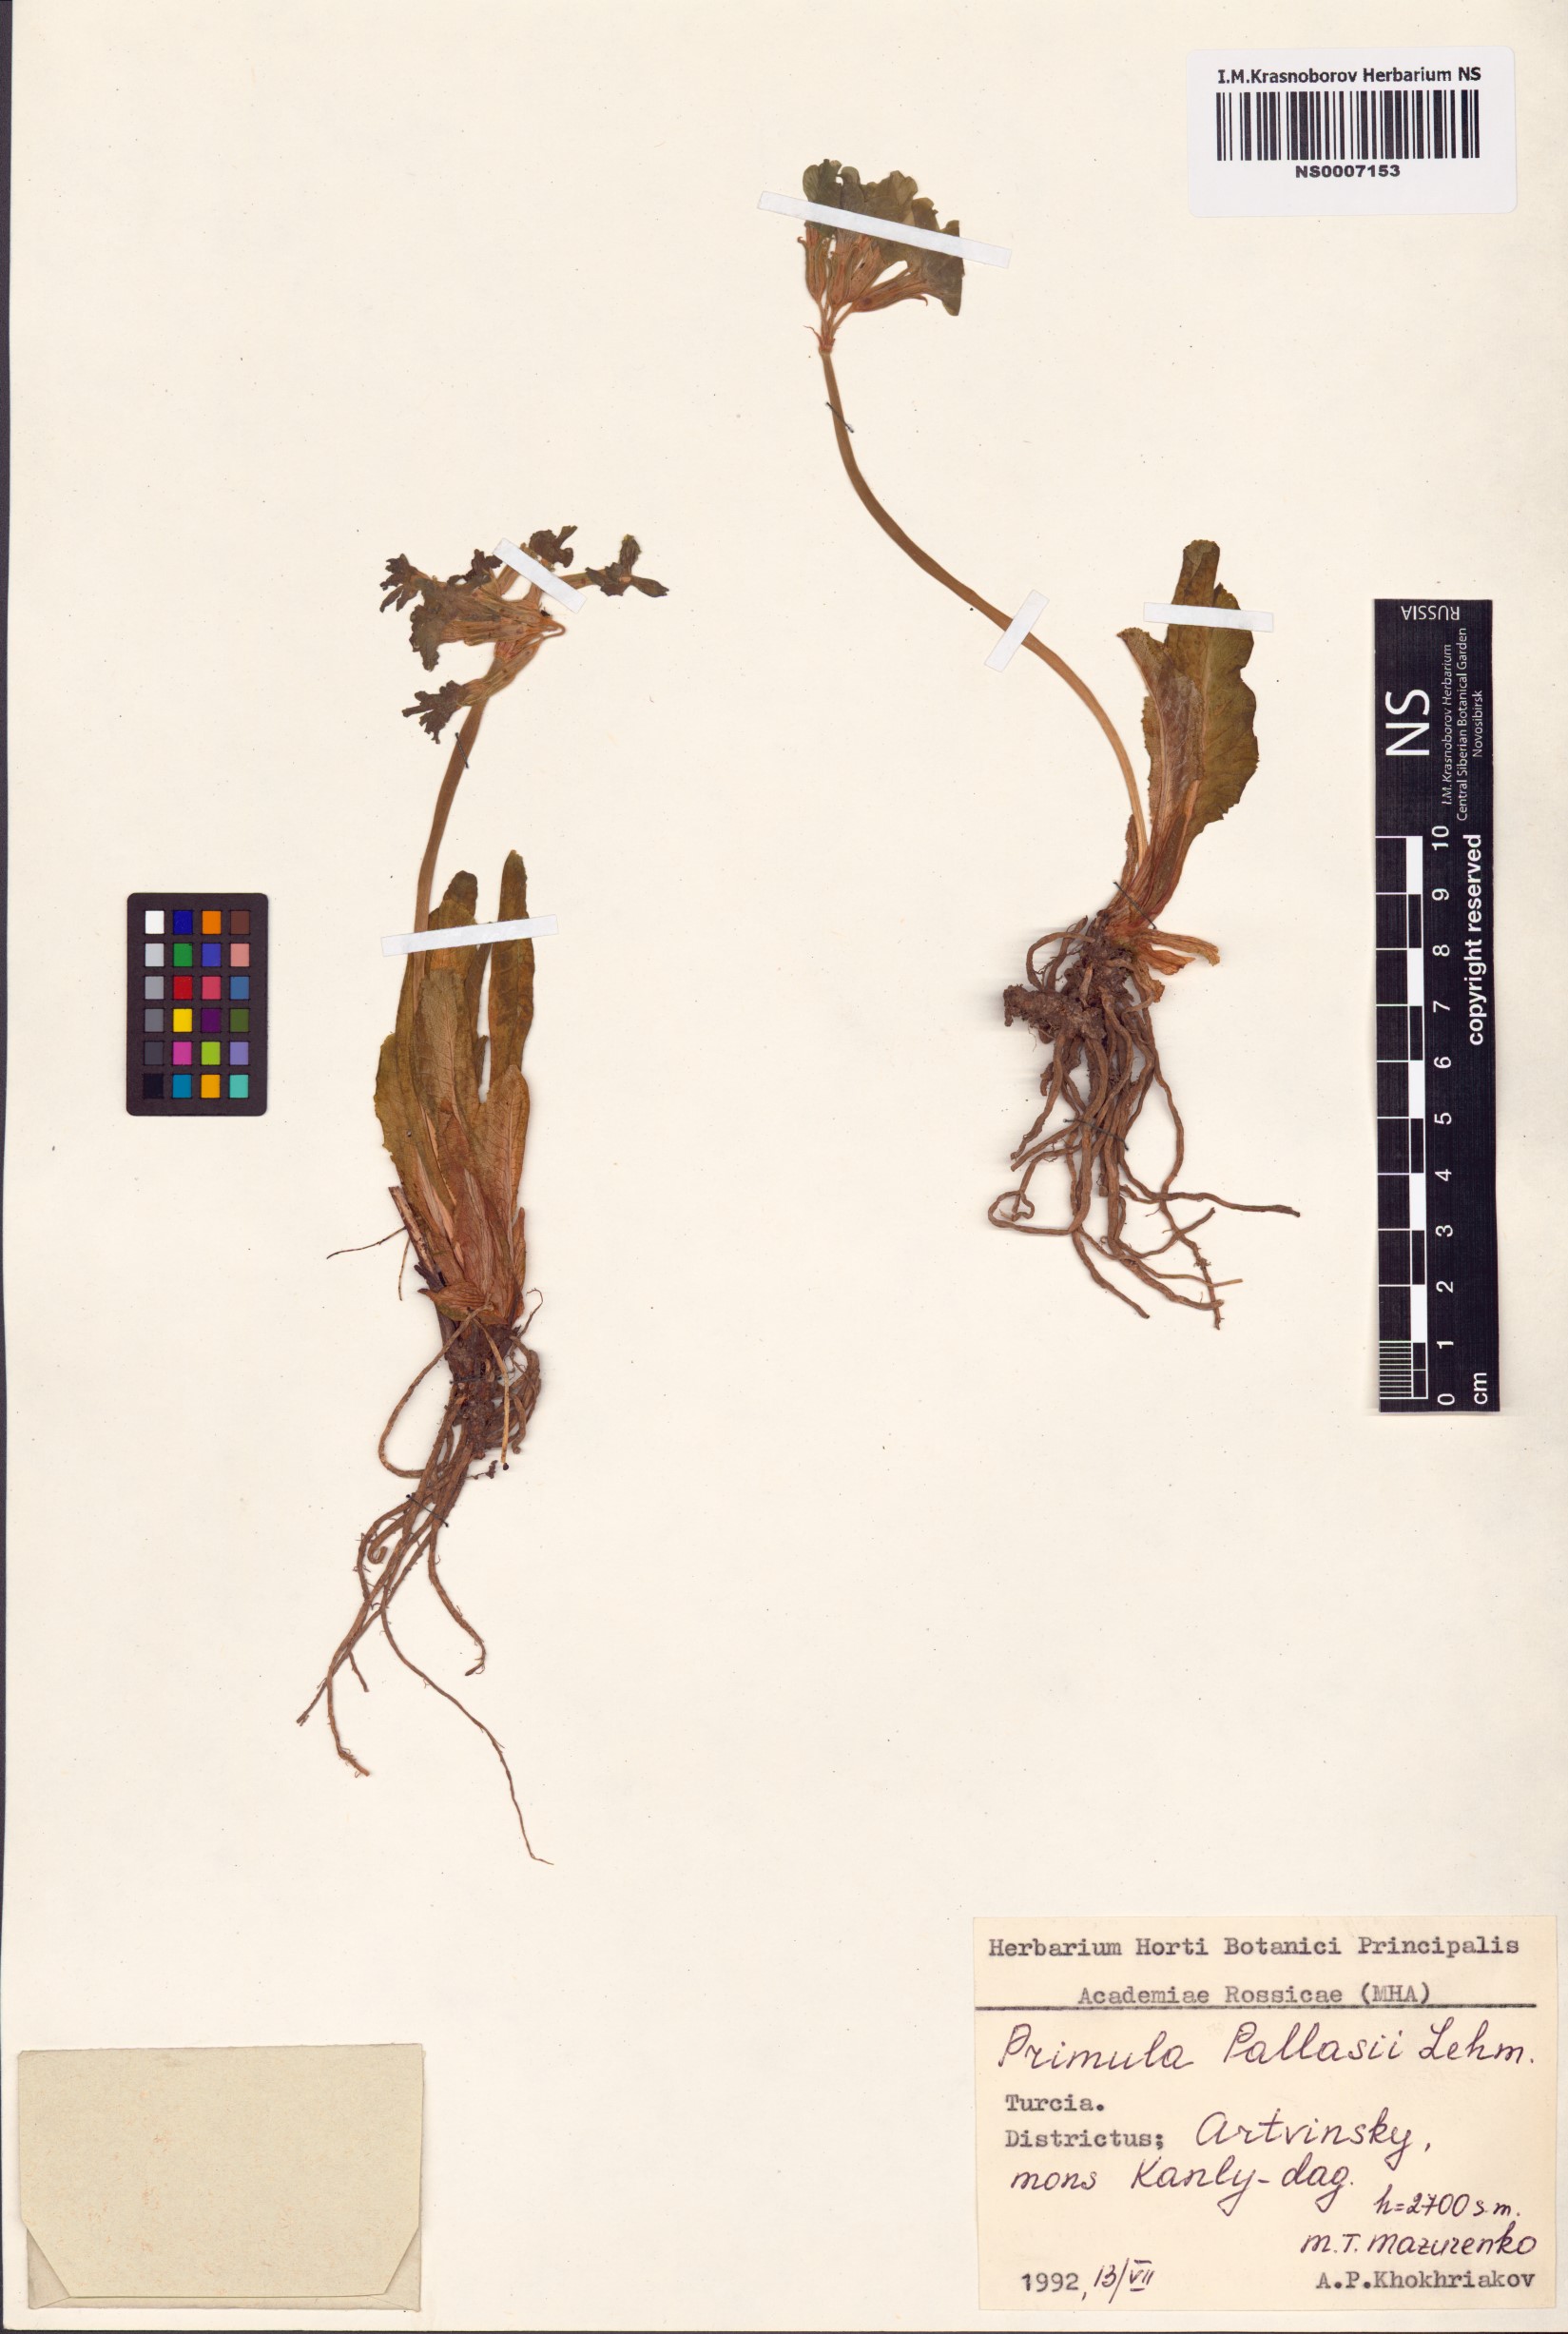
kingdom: Plantae
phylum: Tracheophyta
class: Magnoliopsida
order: Ericales
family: Primulaceae
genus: Primula
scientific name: Primula elatior
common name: Oxlip
